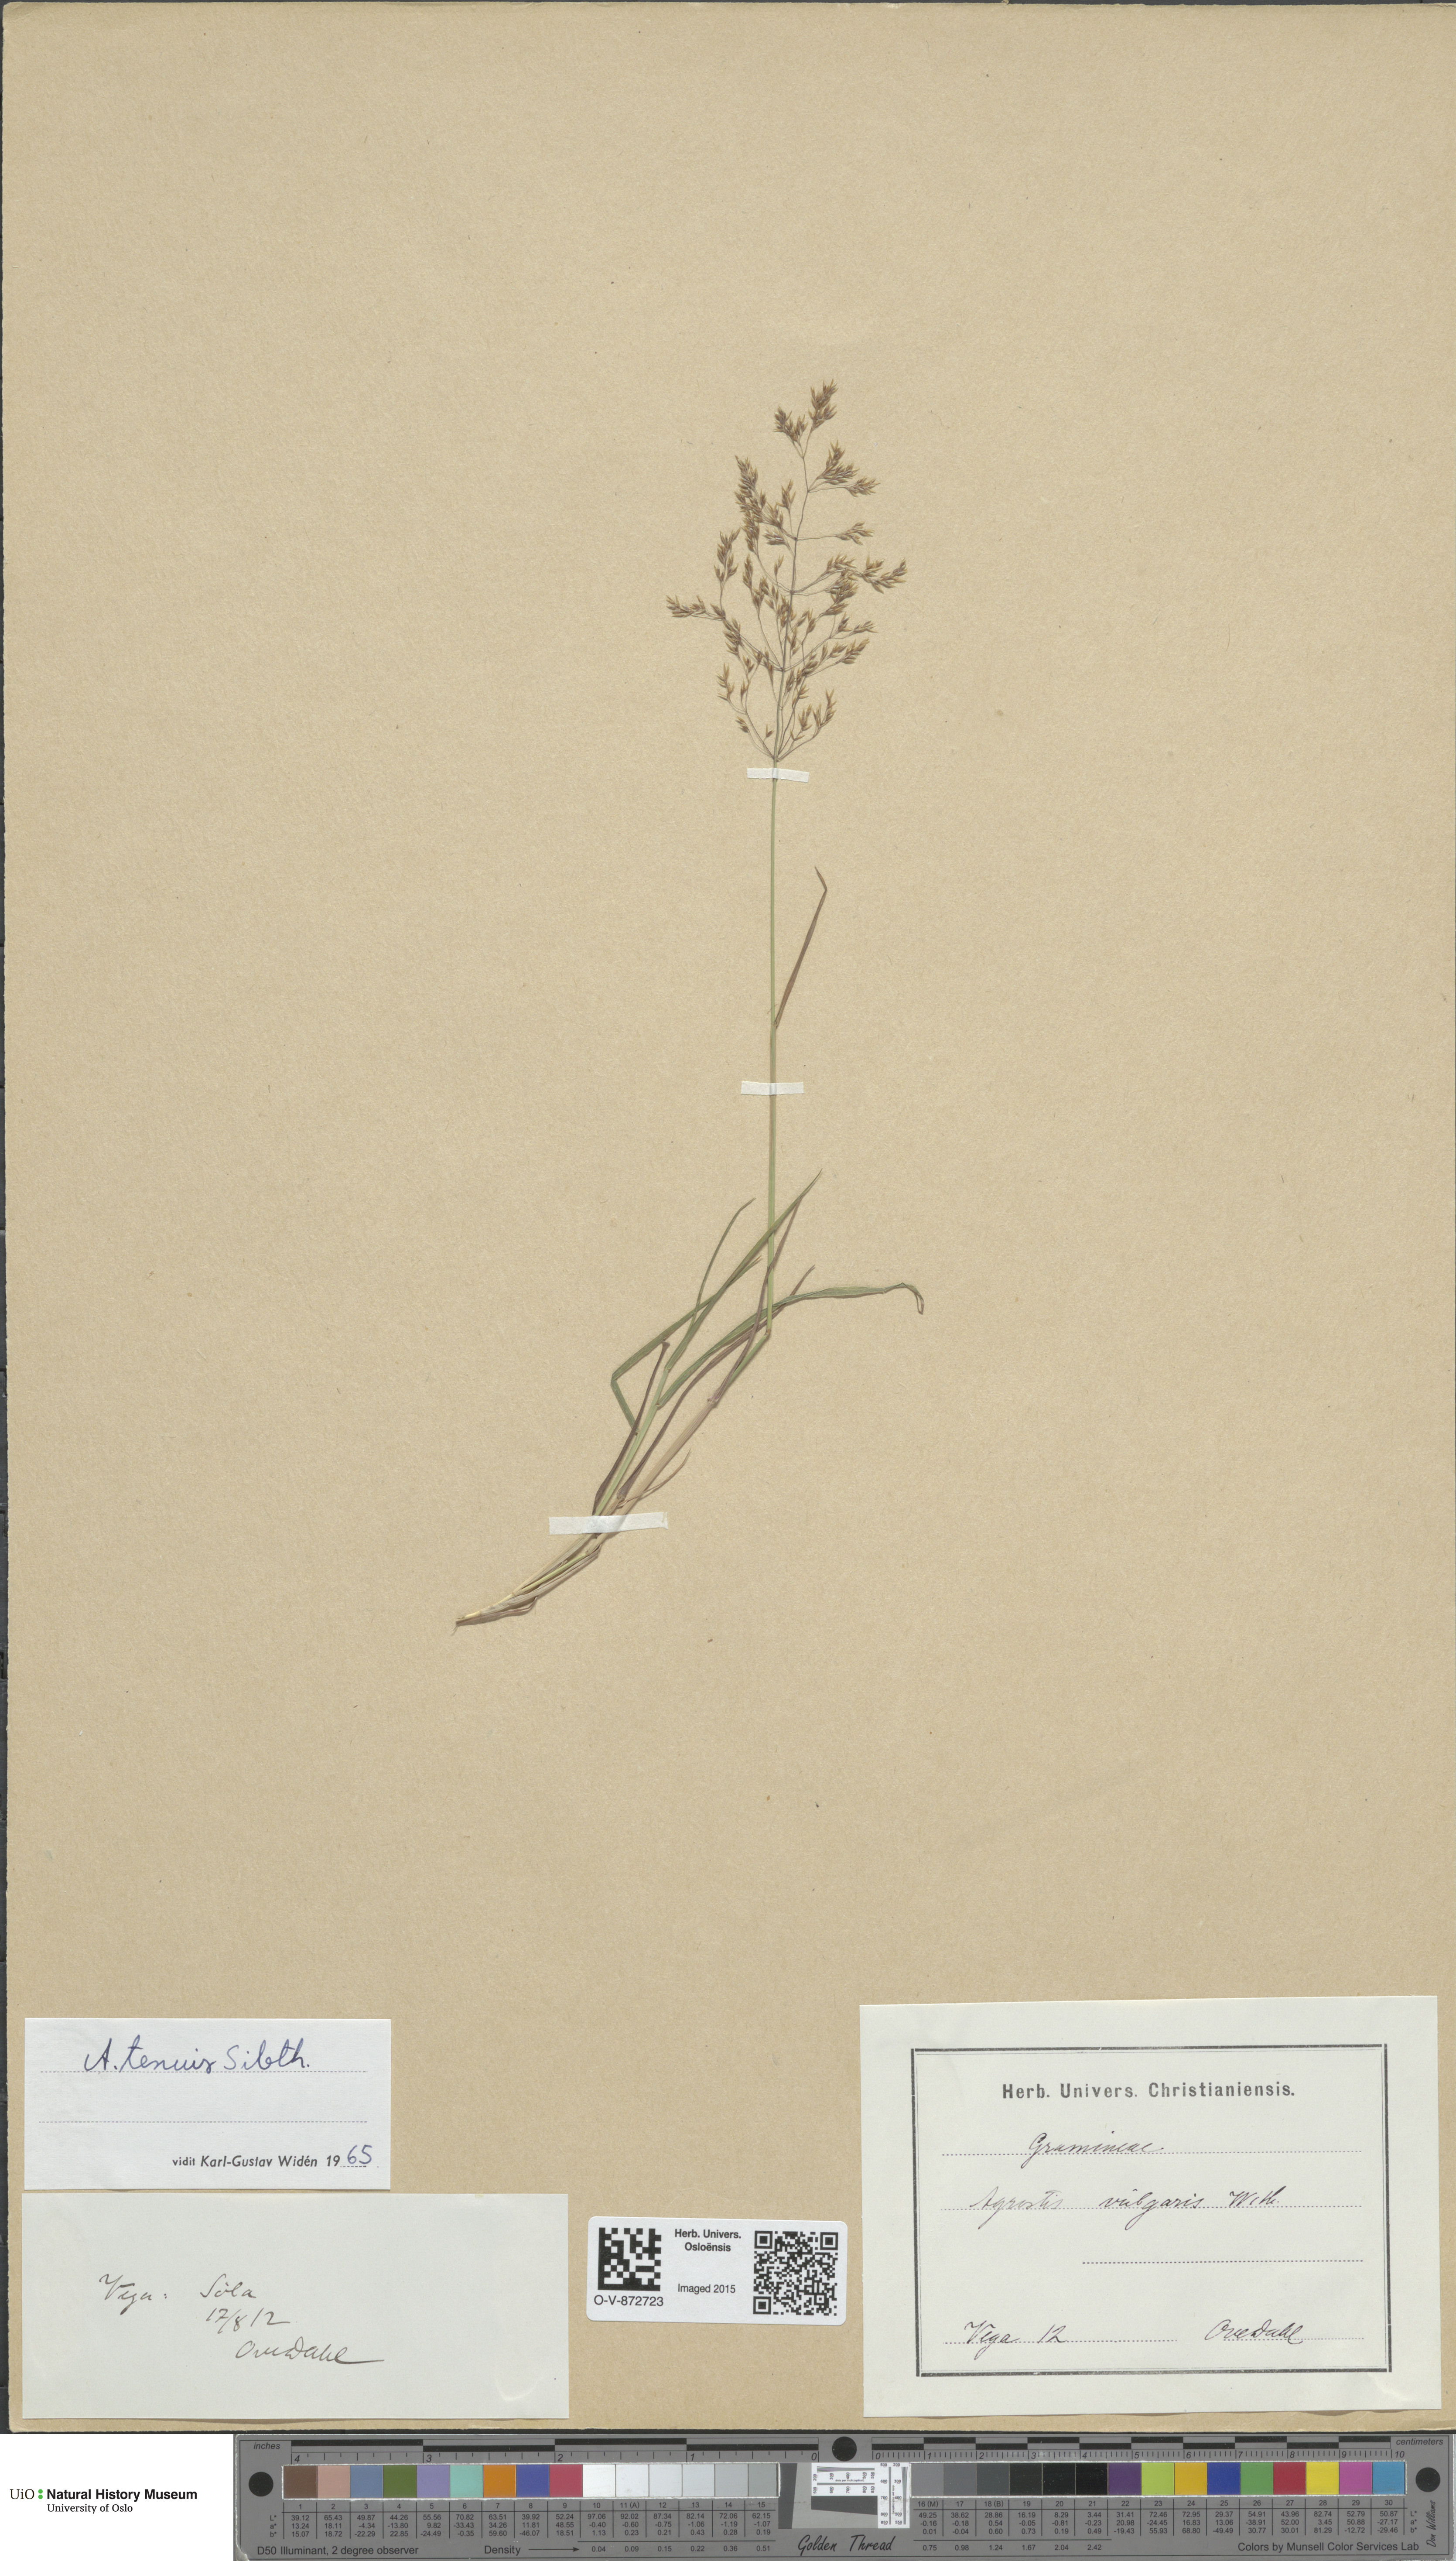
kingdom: Plantae
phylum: Tracheophyta
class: Liliopsida
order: Poales
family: Poaceae
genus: Agrostis
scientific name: Agrostis capillaris
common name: Colonial bentgrass
